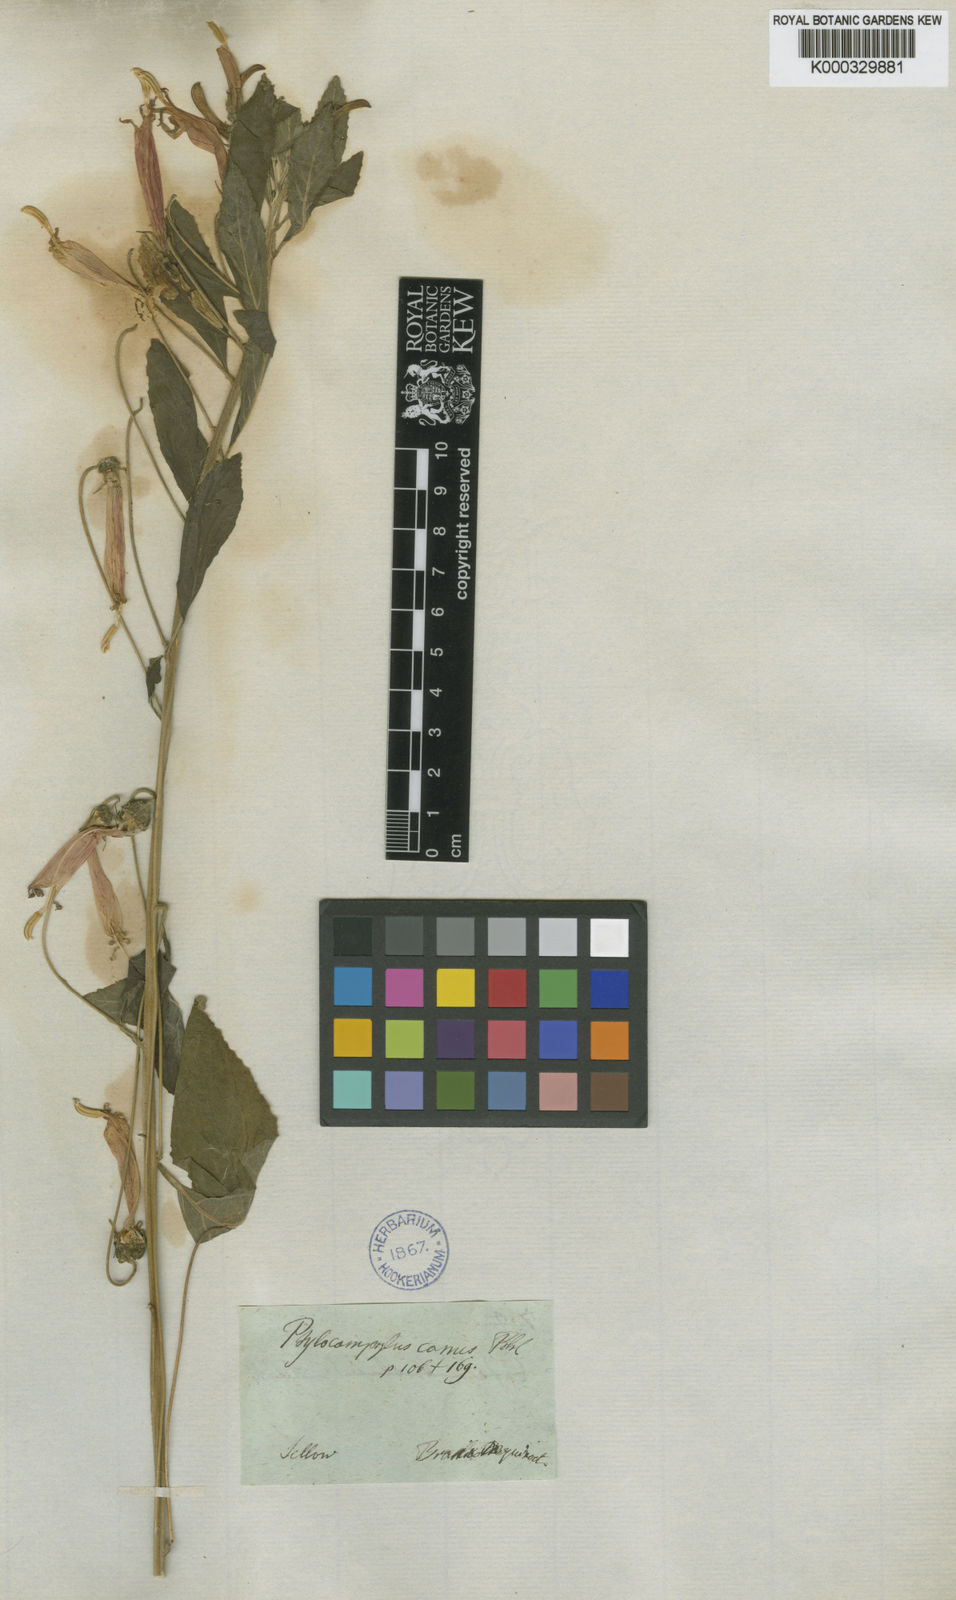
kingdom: Plantae
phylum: Tracheophyta
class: Magnoliopsida
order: Asterales
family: Campanulaceae
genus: Siphocampylus
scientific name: Siphocampylus macropodus
